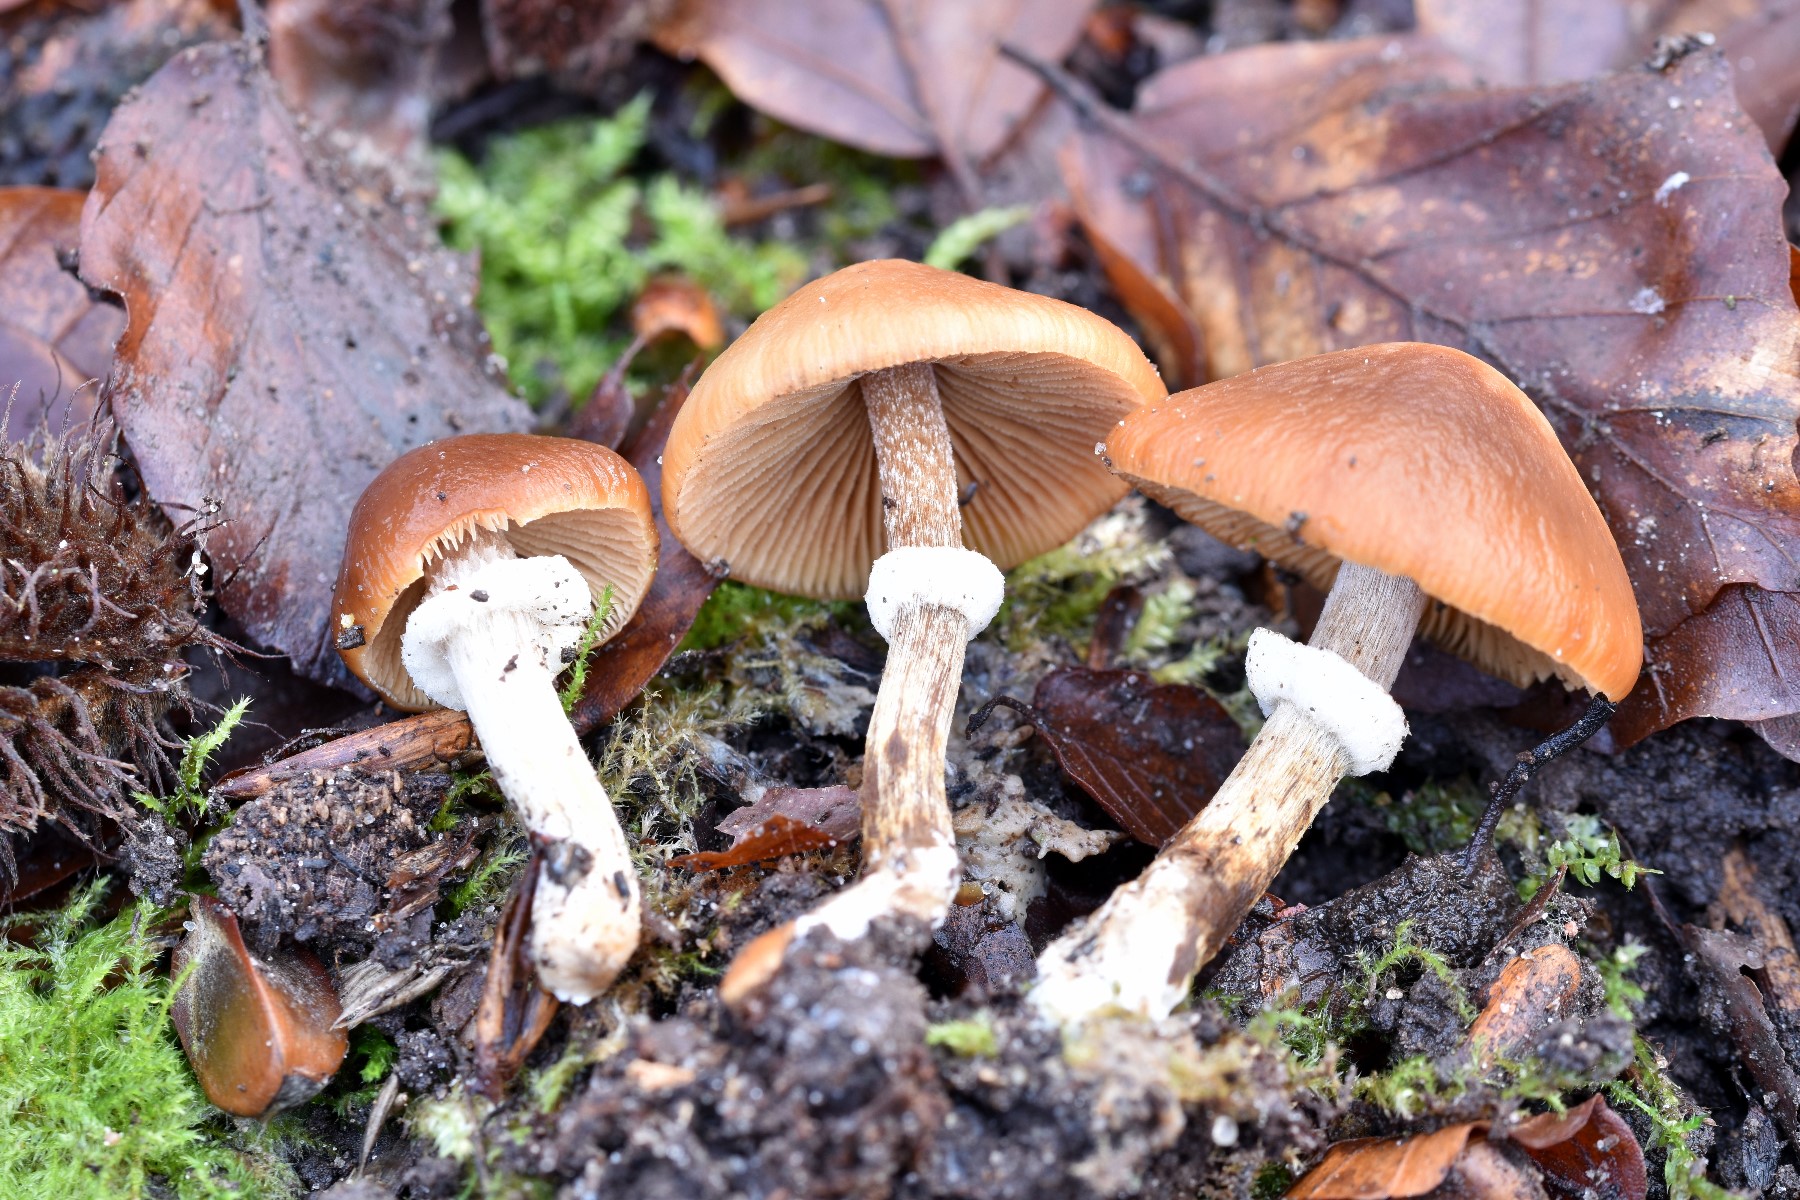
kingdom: Fungi
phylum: Basidiomycota
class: Agaricomycetes
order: Agaricales
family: Bolbitiaceae
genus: Conocybe
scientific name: Conocybe aporos
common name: tidlig dansehat
